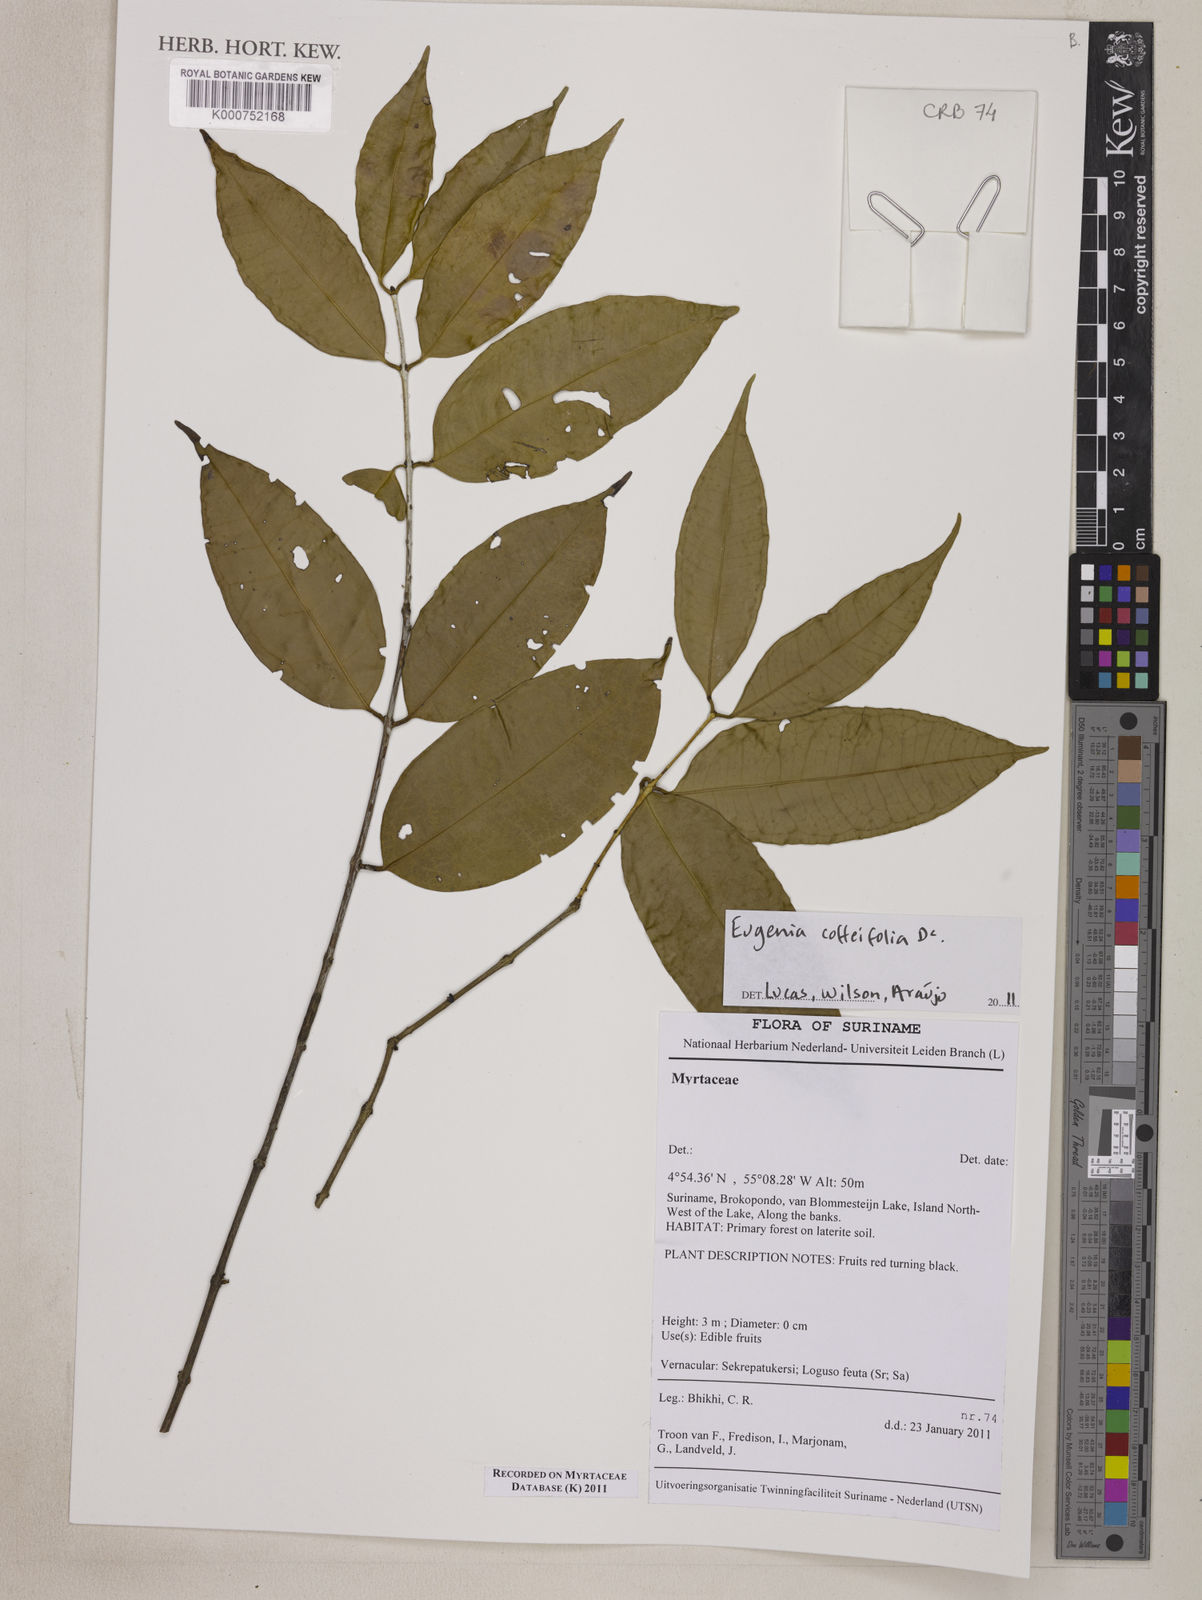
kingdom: Plantae
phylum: Tracheophyta
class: Magnoliopsida
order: Myrtales
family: Myrtaceae
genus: Eugenia
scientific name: Eugenia coffeifolia
